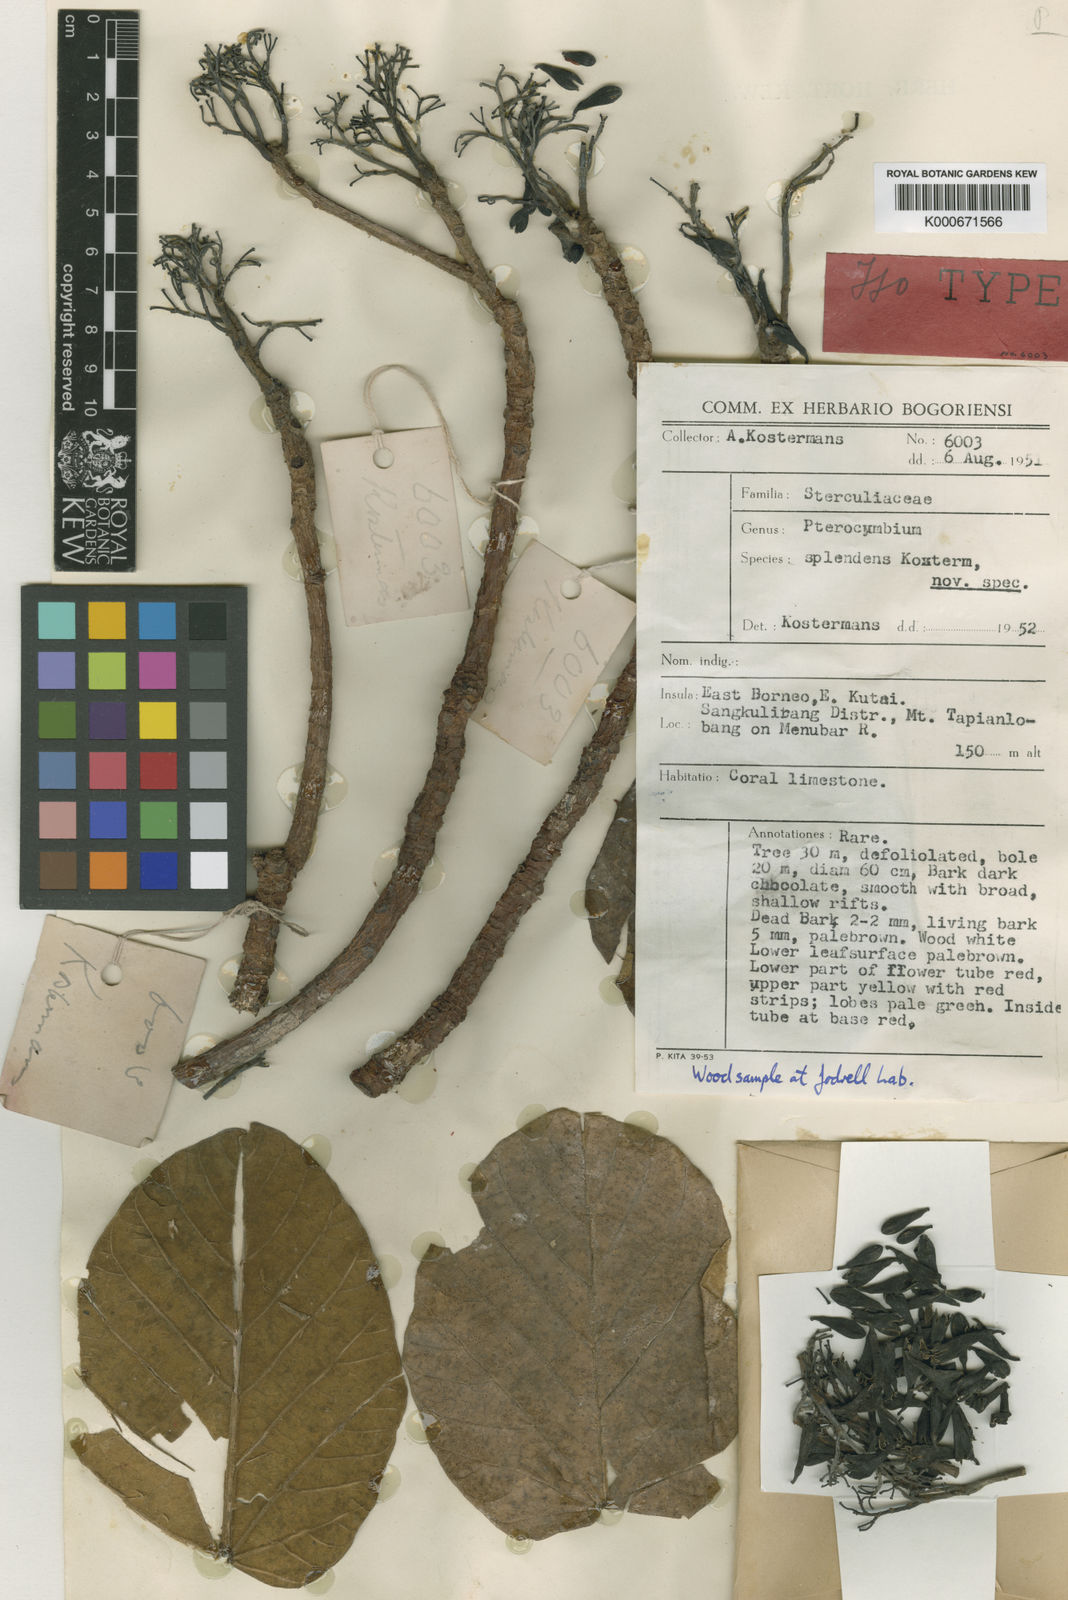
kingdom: Plantae
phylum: Tracheophyta
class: Magnoliopsida
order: Malvales
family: Malvaceae
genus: Pterocymbium
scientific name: Pterocymbium splendens
